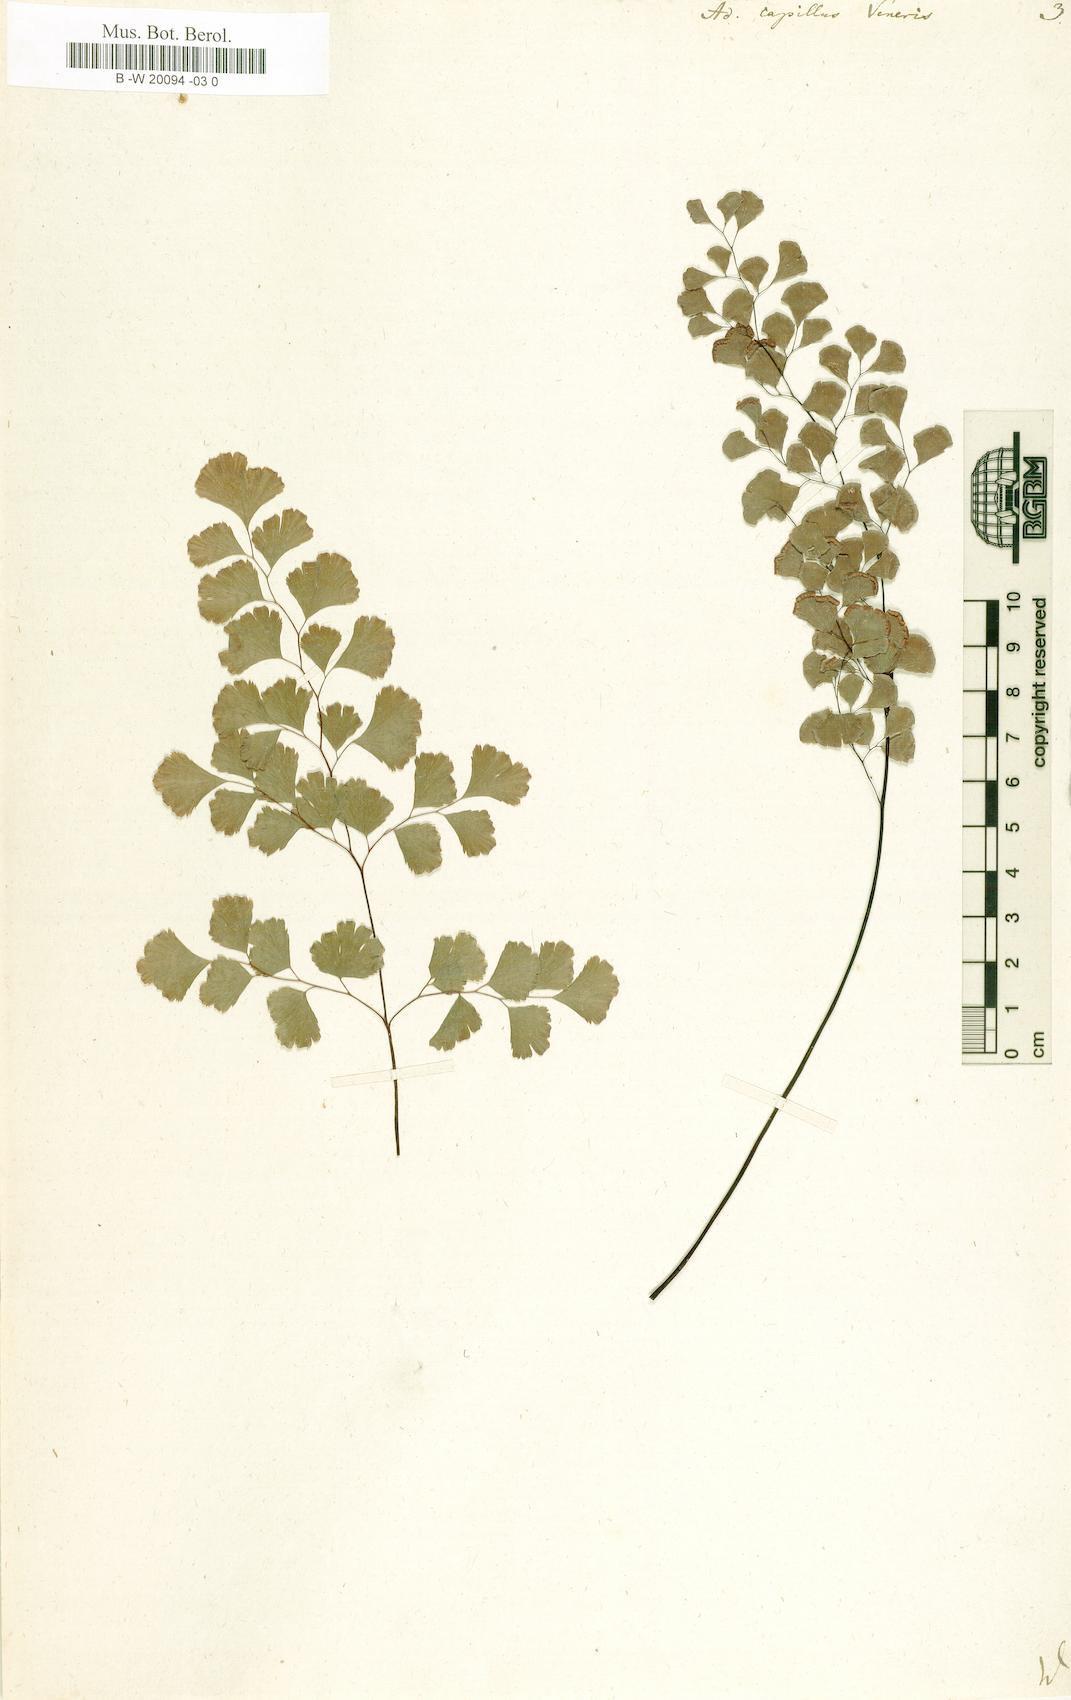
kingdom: Plantae
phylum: Tracheophyta
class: Polypodiopsida
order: Polypodiales
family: Pteridaceae
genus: Adiantum
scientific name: Adiantum capillus-veneris
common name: Maidenhair fern
